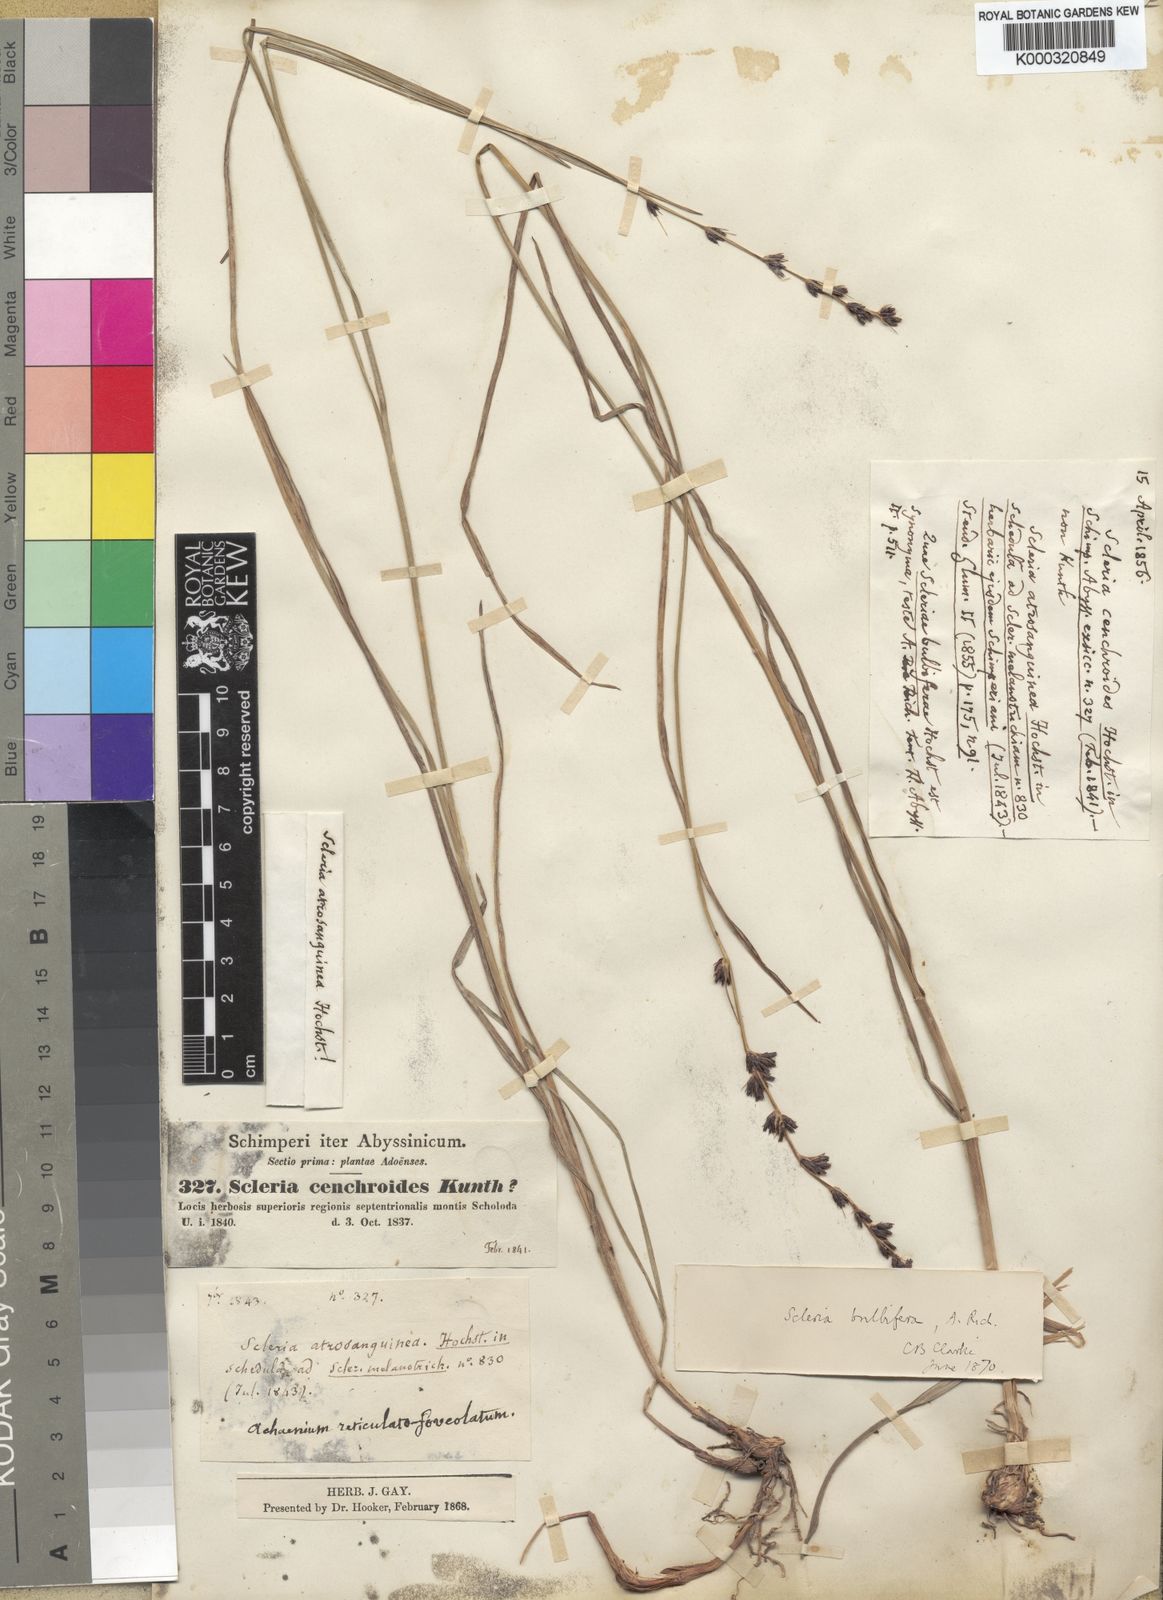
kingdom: Plantae
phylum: Tracheophyta
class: Liliopsida
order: Poales
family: Cyperaceae
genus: Scleria
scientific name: Scleria bulbifera
